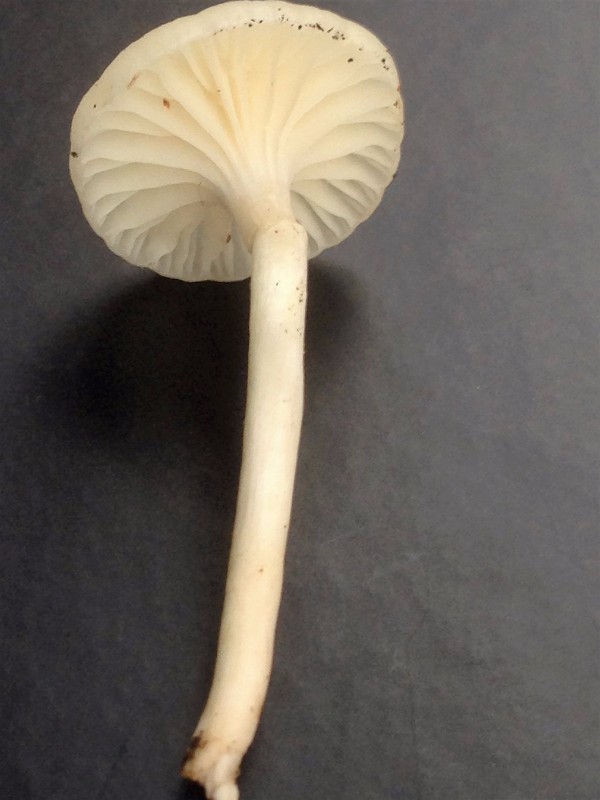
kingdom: Fungi
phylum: Basidiomycota
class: Agaricomycetes
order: Agaricales
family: Hygrophoraceae
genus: Cuphophyllus
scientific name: Cuphophyllus virgineus
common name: snehvid vokshat
